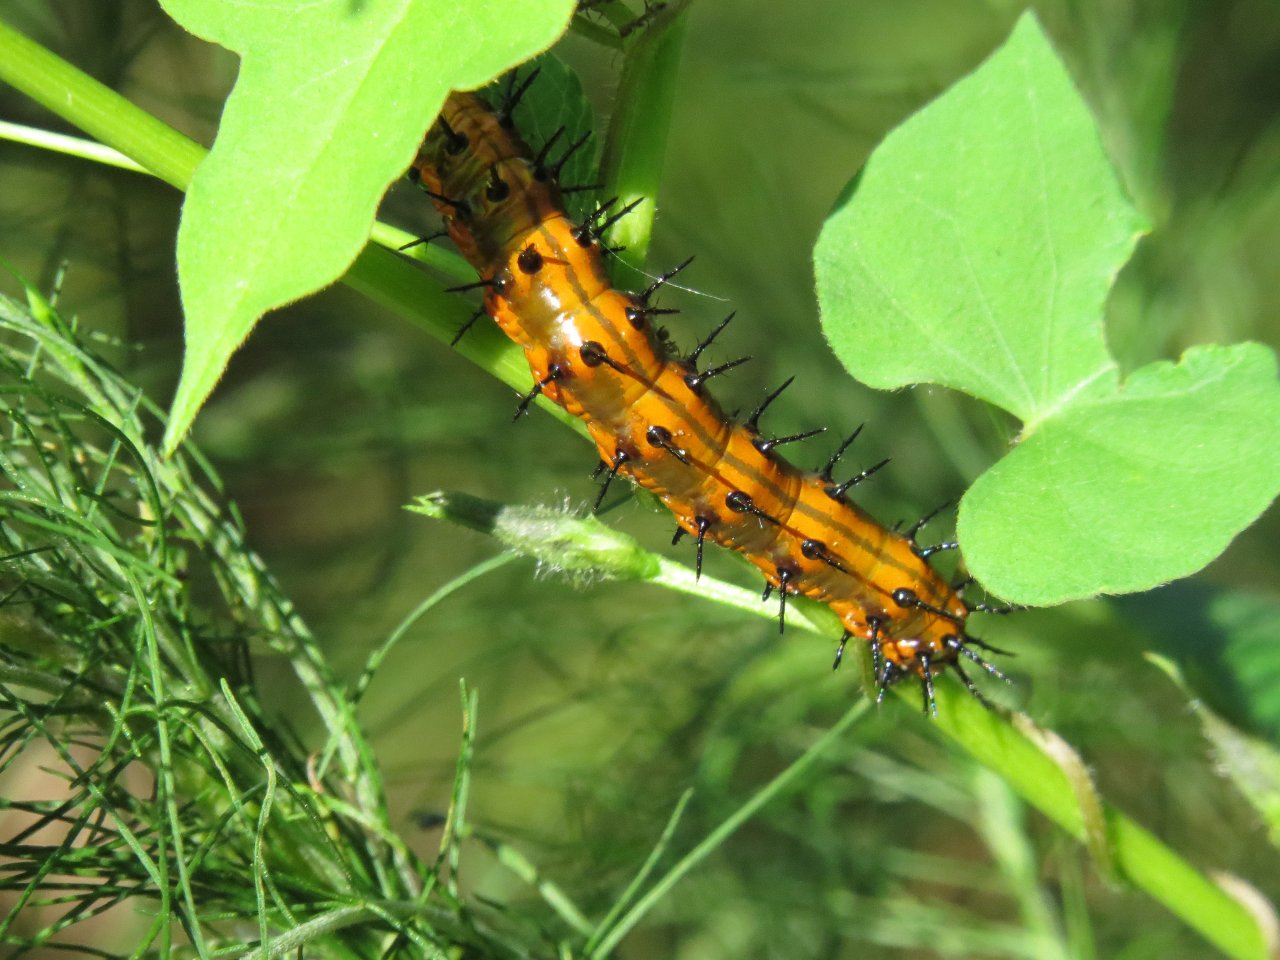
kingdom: Animalia
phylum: Arthropoda
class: Insecta
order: Lepidoptera
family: Nymphalidae
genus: Dione
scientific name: Dione vanillae
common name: Gulf Fritillary
